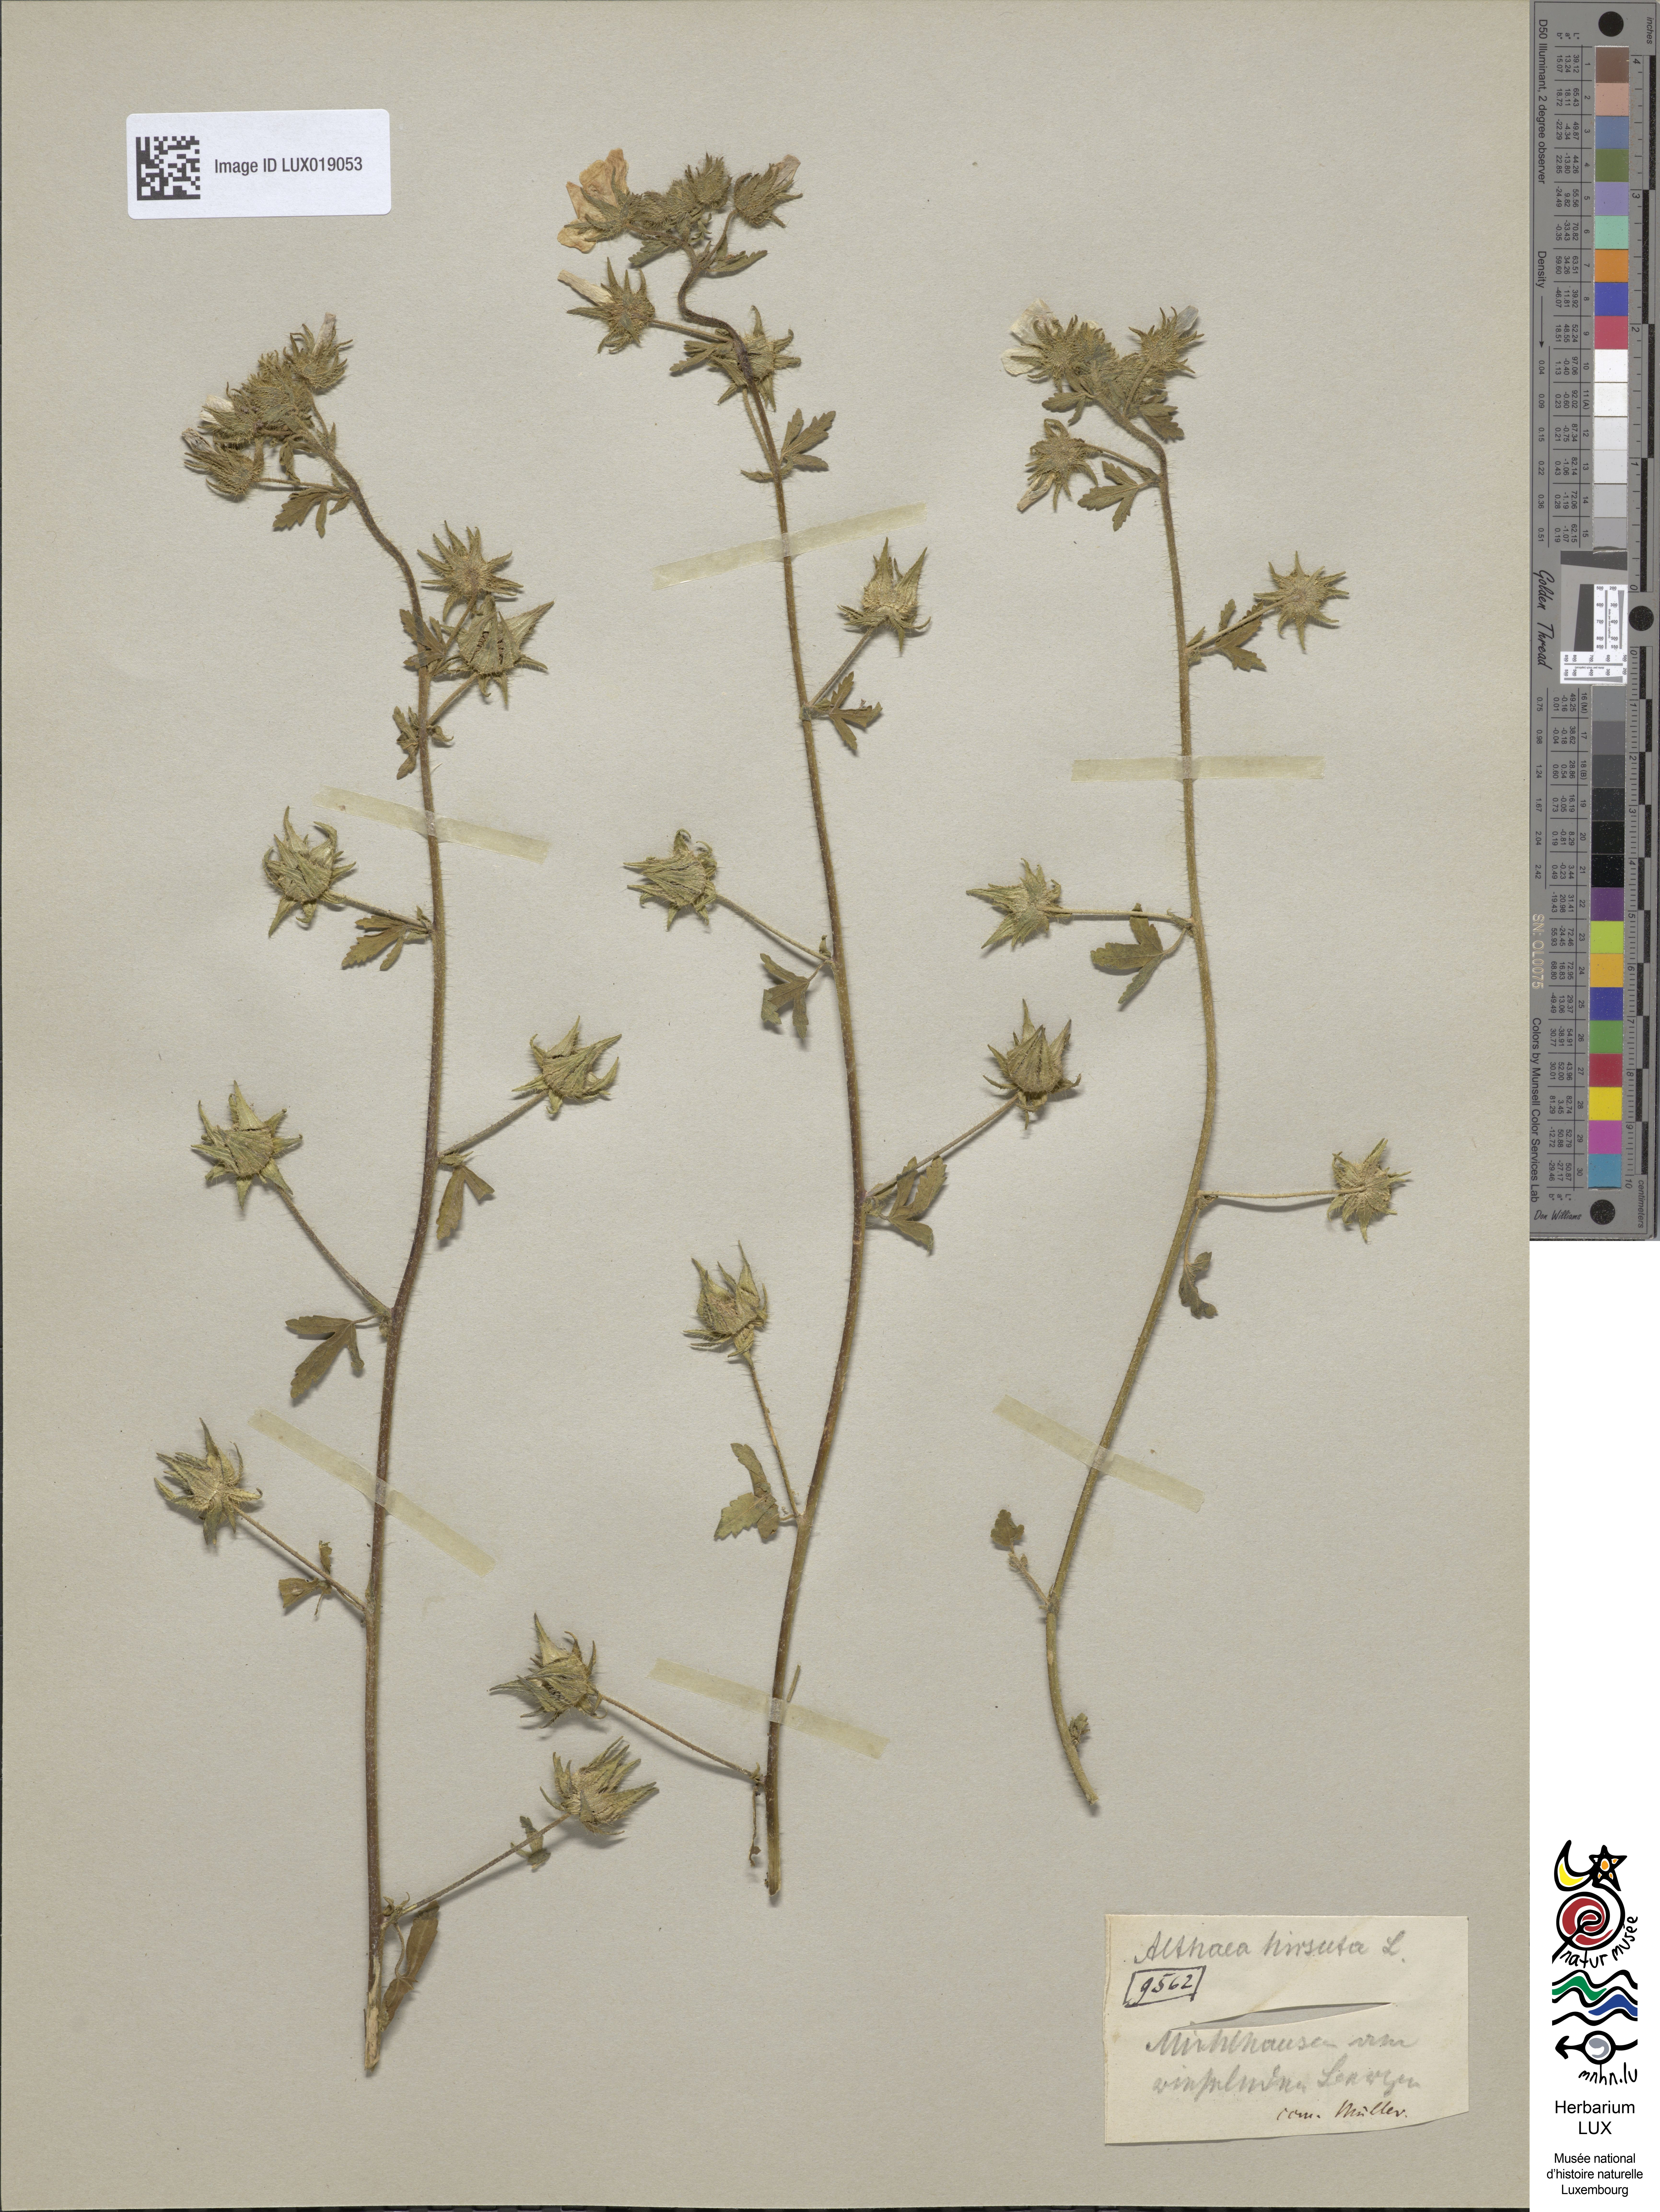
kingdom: Plantae
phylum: Tracheophyta
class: Magnoliopsida
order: Malvales
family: Malvaceae
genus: Althaea
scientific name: Althaea hirsuta
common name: Rough marsh-mallow
